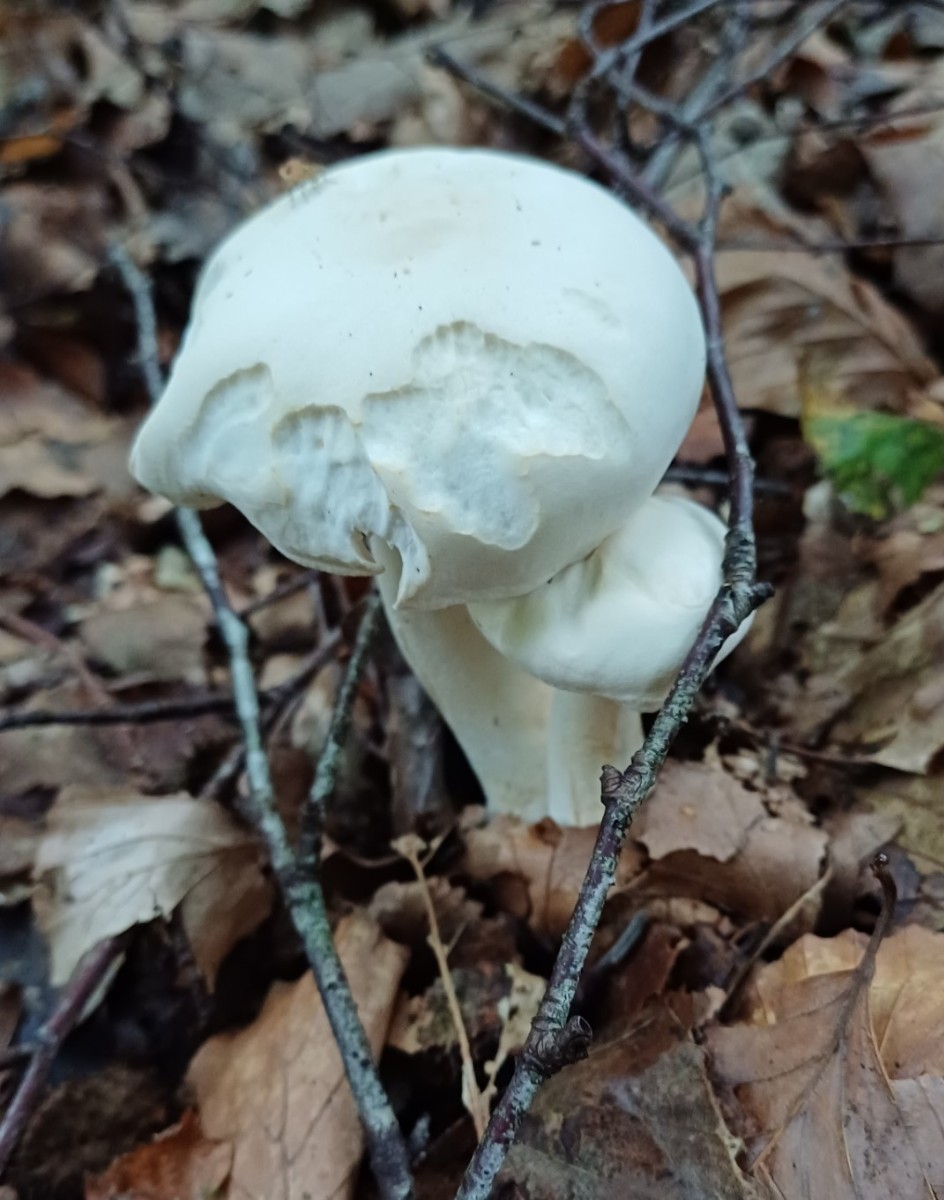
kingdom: Fungi
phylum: Basidiomycota
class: Agaricomycetes
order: Agaricales
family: Tricholomataceae
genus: Tricholoma
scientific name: Tricholoma lascivum
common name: stinkende ridderhat
